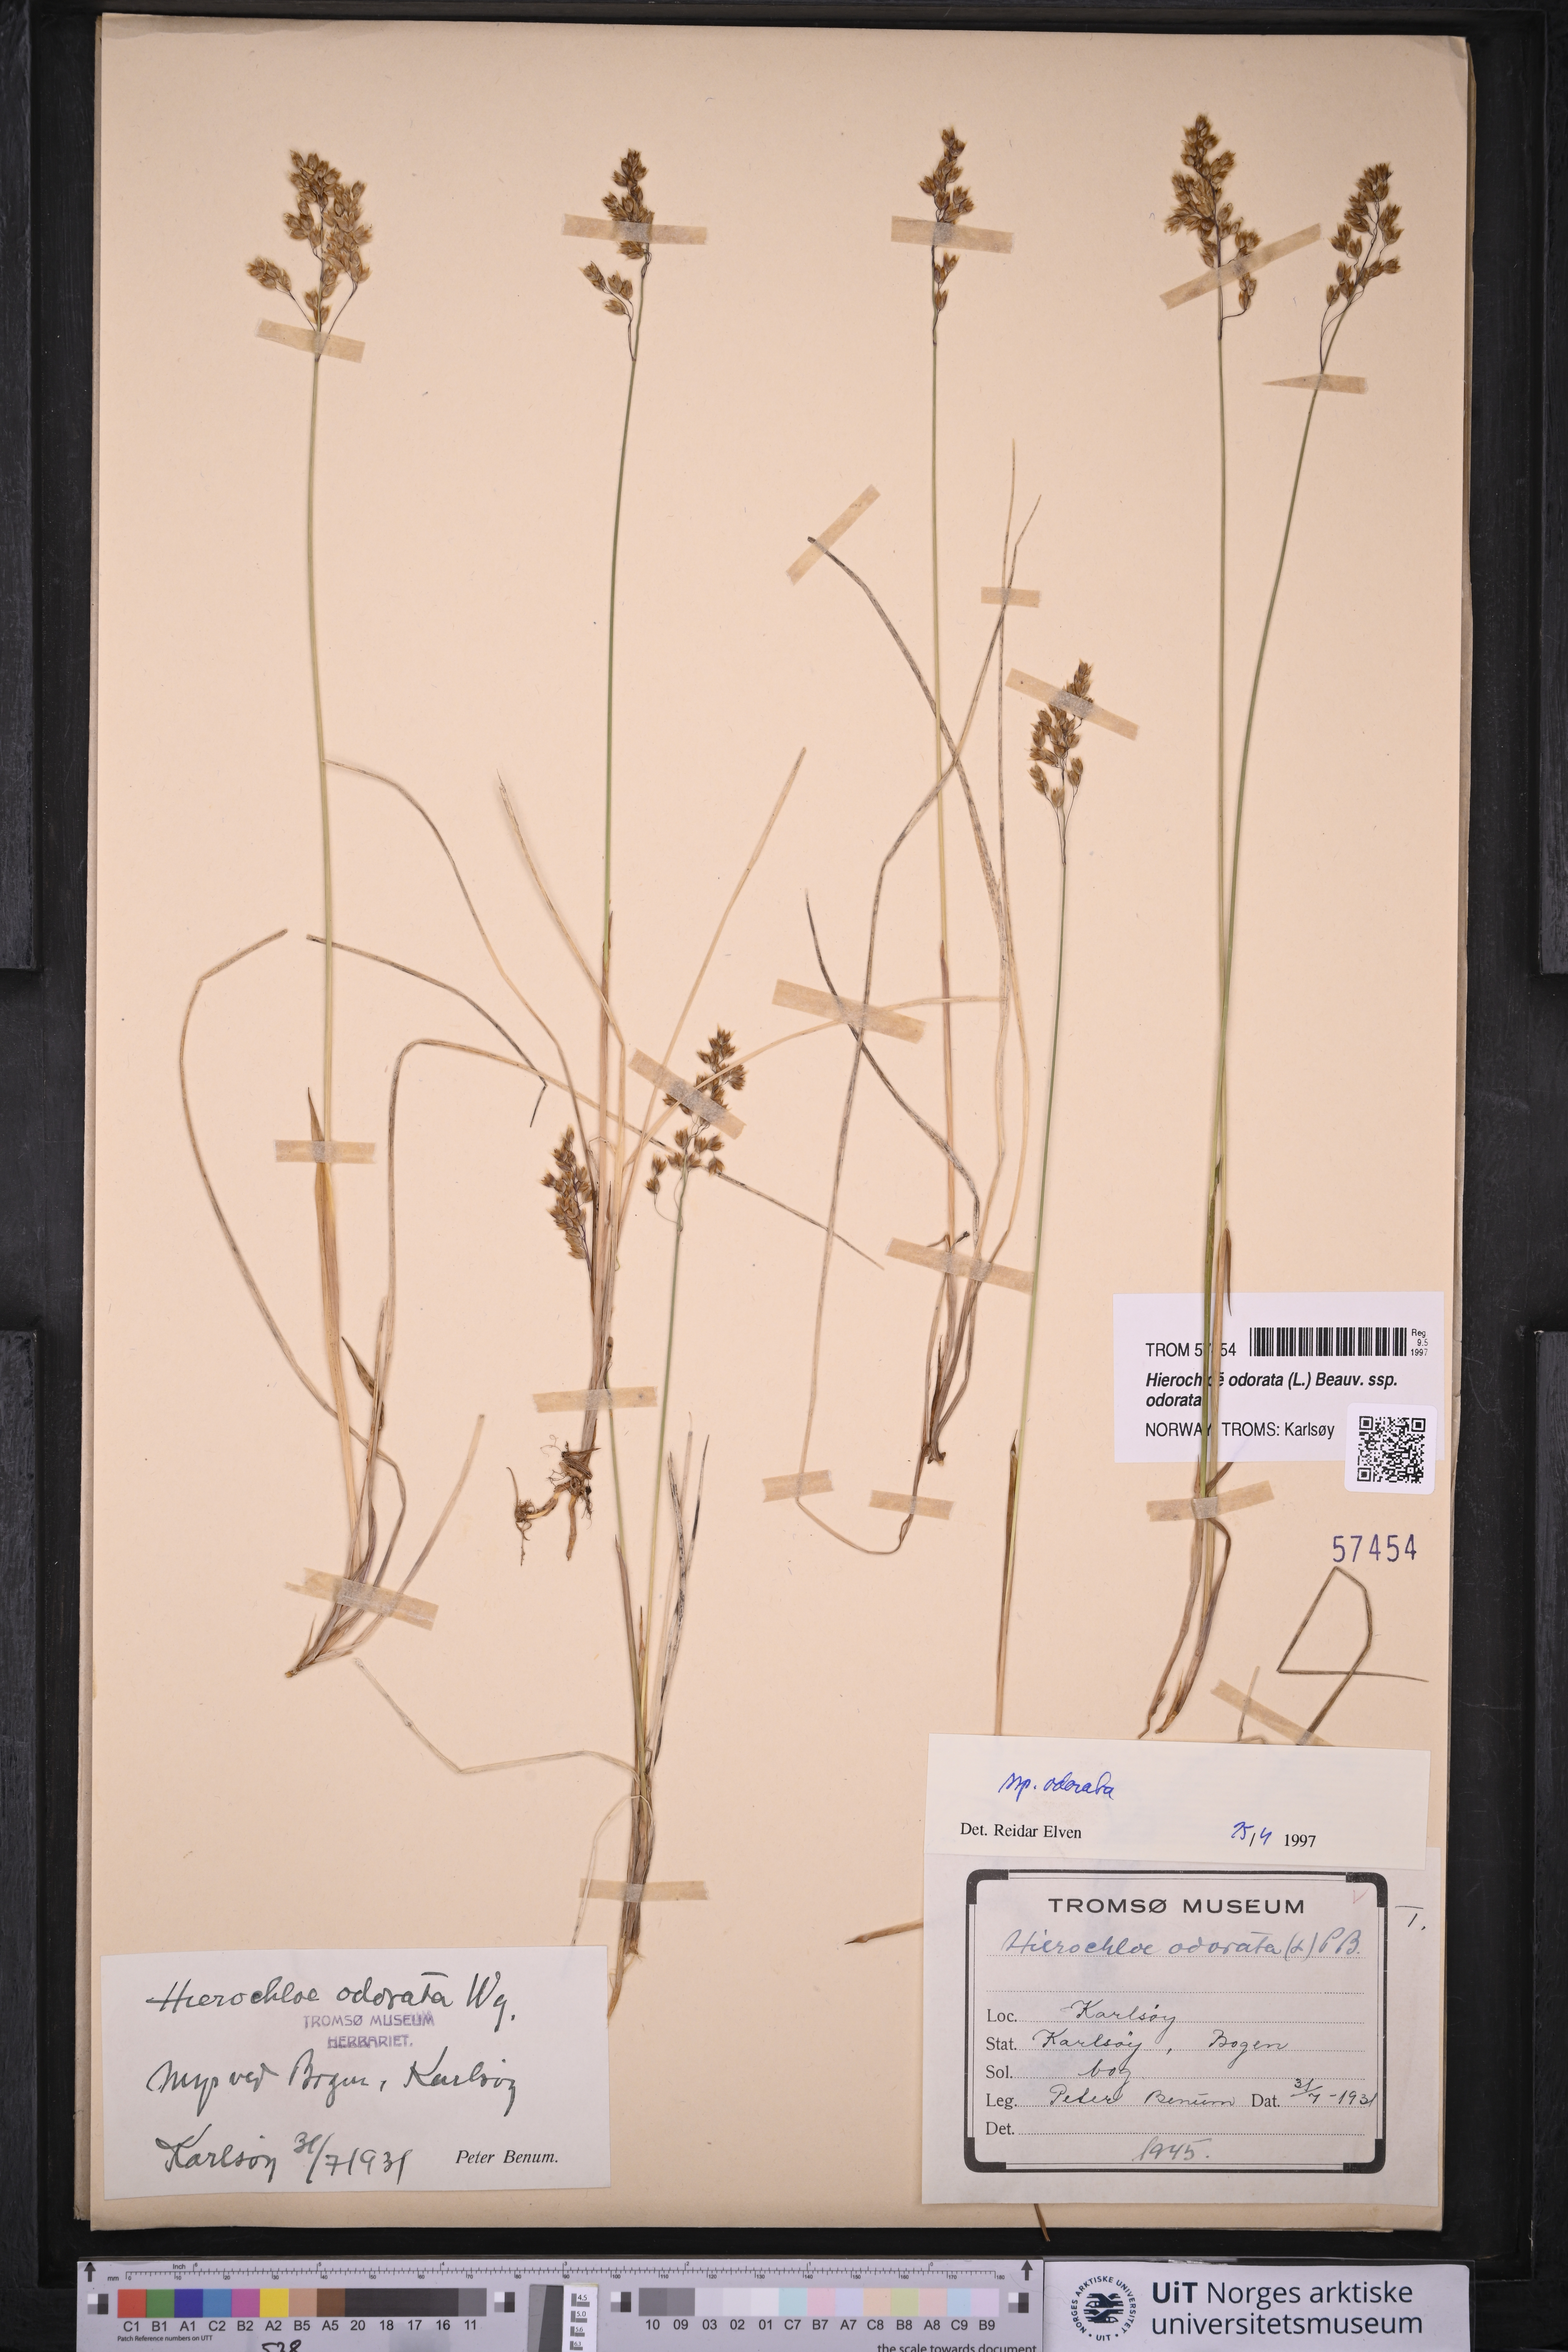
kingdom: Plantae
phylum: Tracheophyta
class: Liliopsida
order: Poales
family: Poaceae
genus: Anthoxanthum
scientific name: Anthoxanthum nitens
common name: Holy grass
